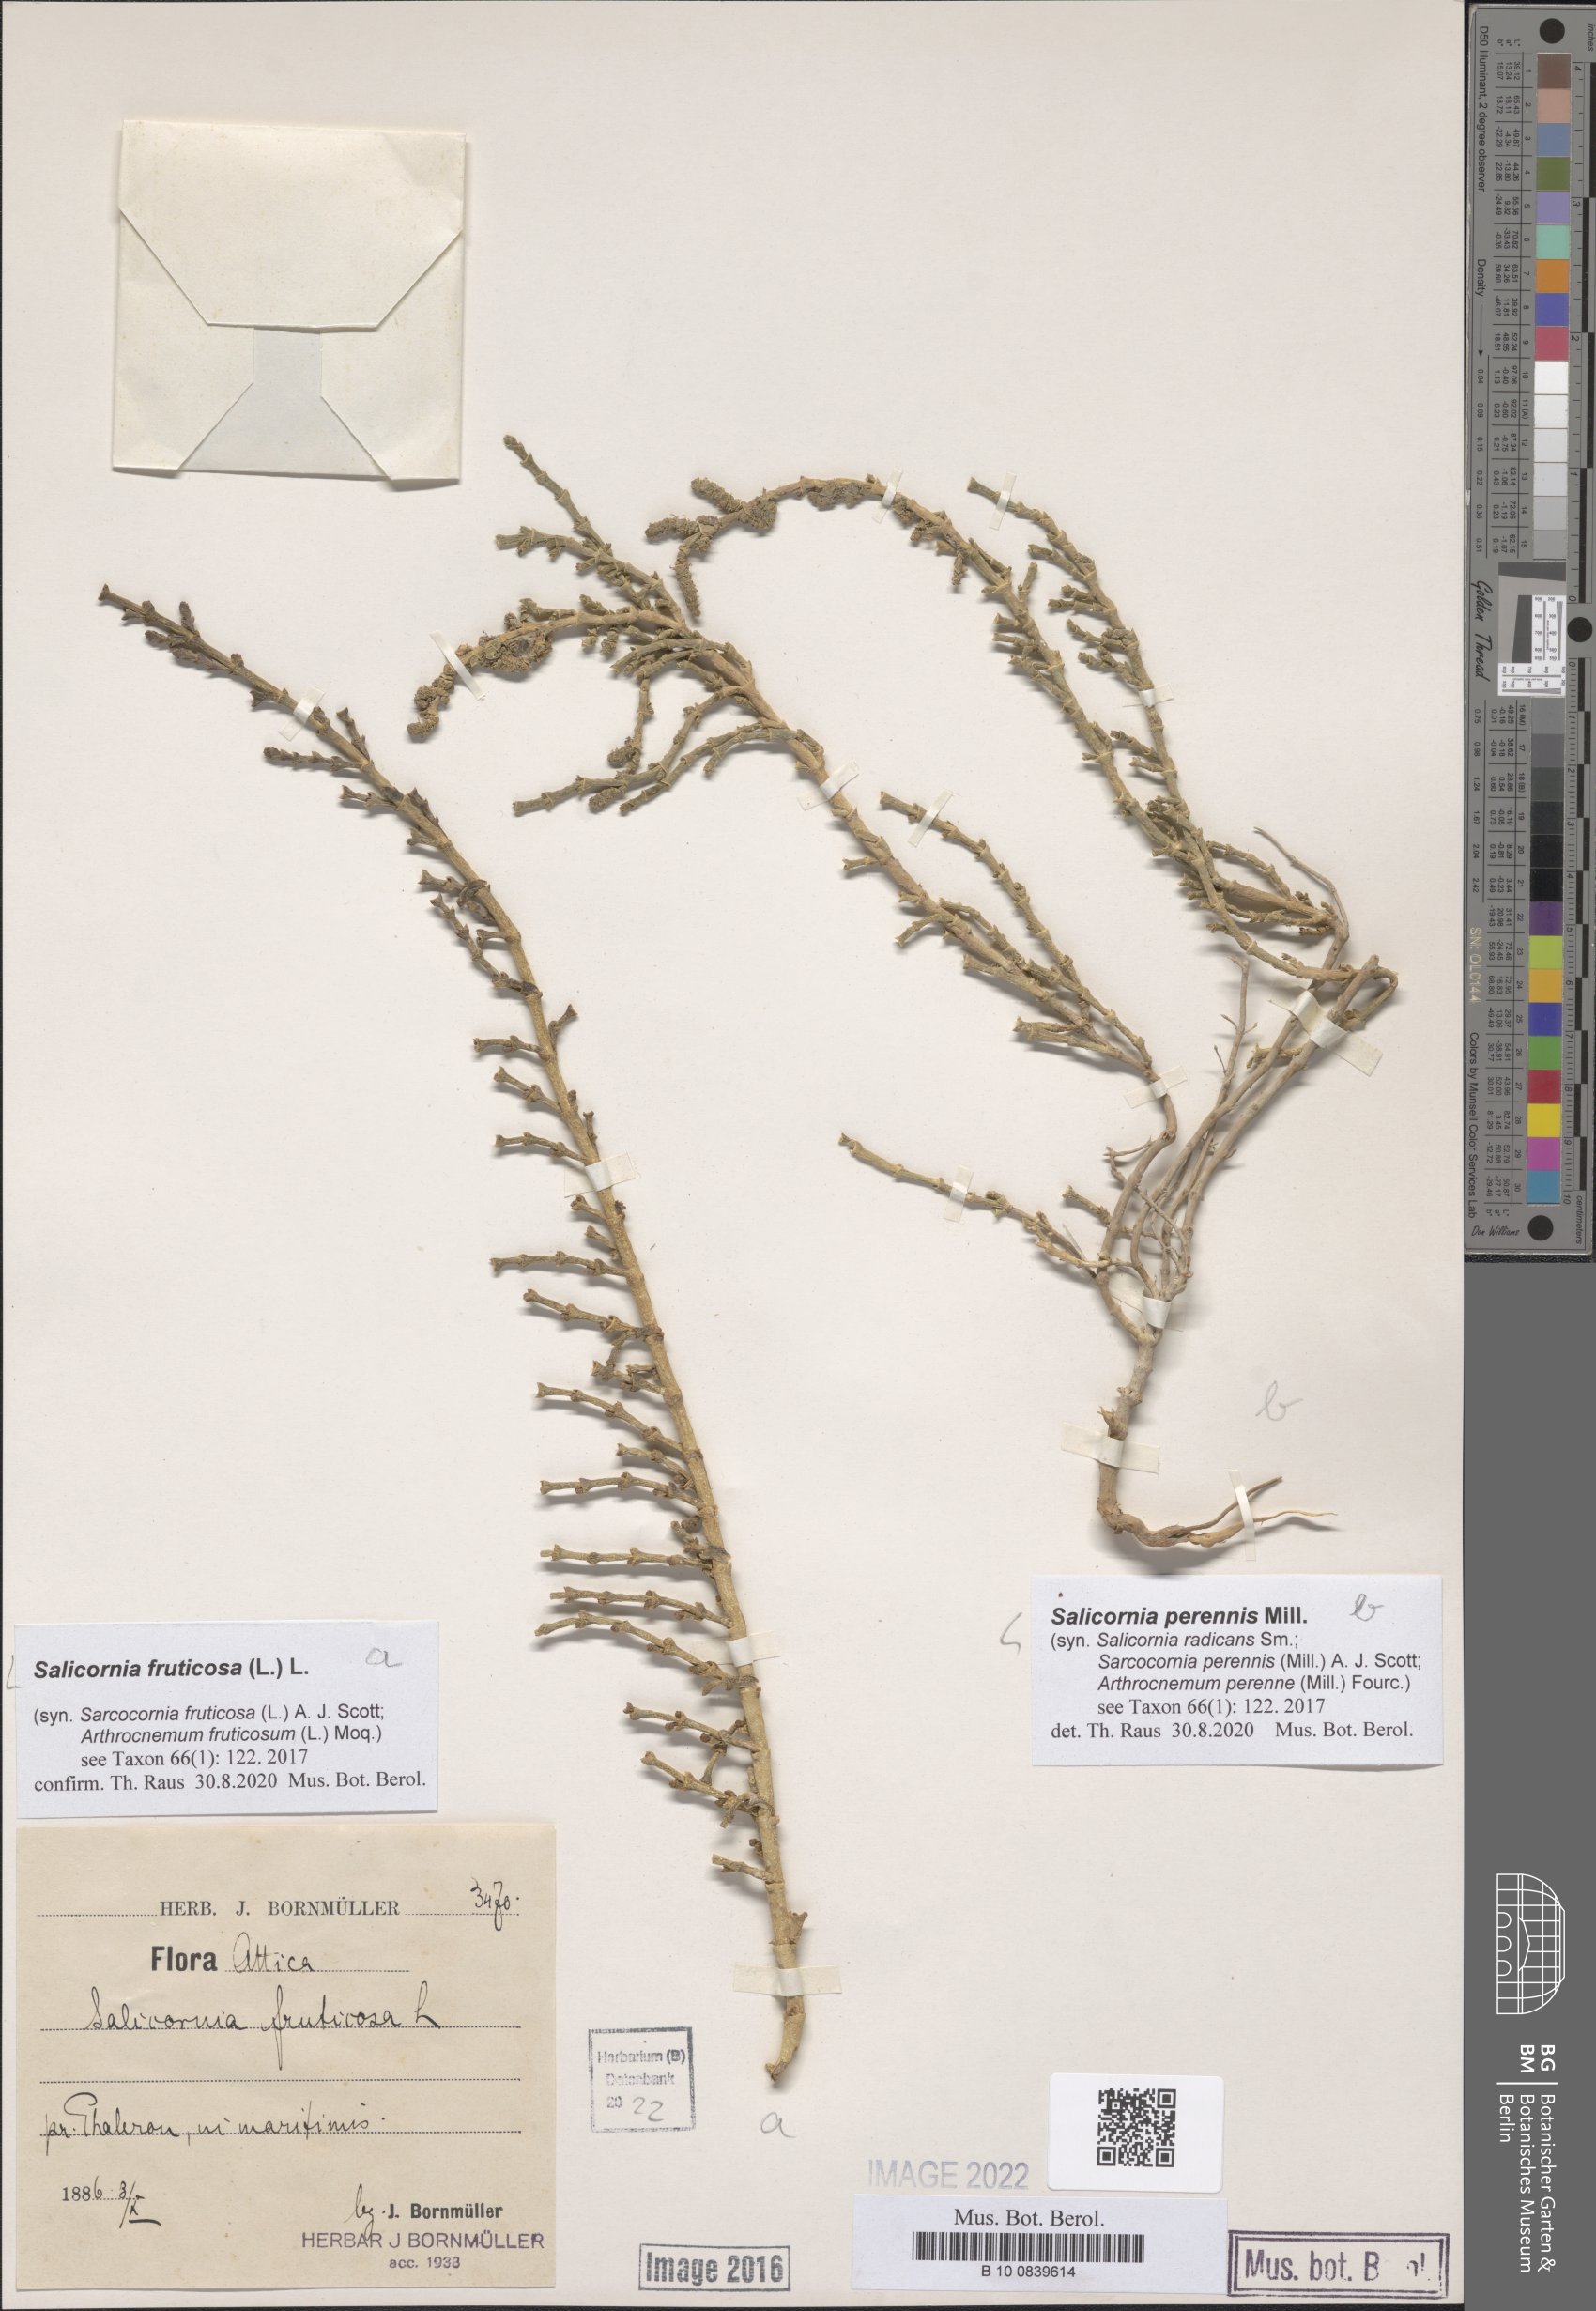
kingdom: Plantae
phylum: Tracheophyta
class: Magnoliopsida
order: Caryophyllales
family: Amaranthaceae
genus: Salicornia
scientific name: Salicornia fruticosa
